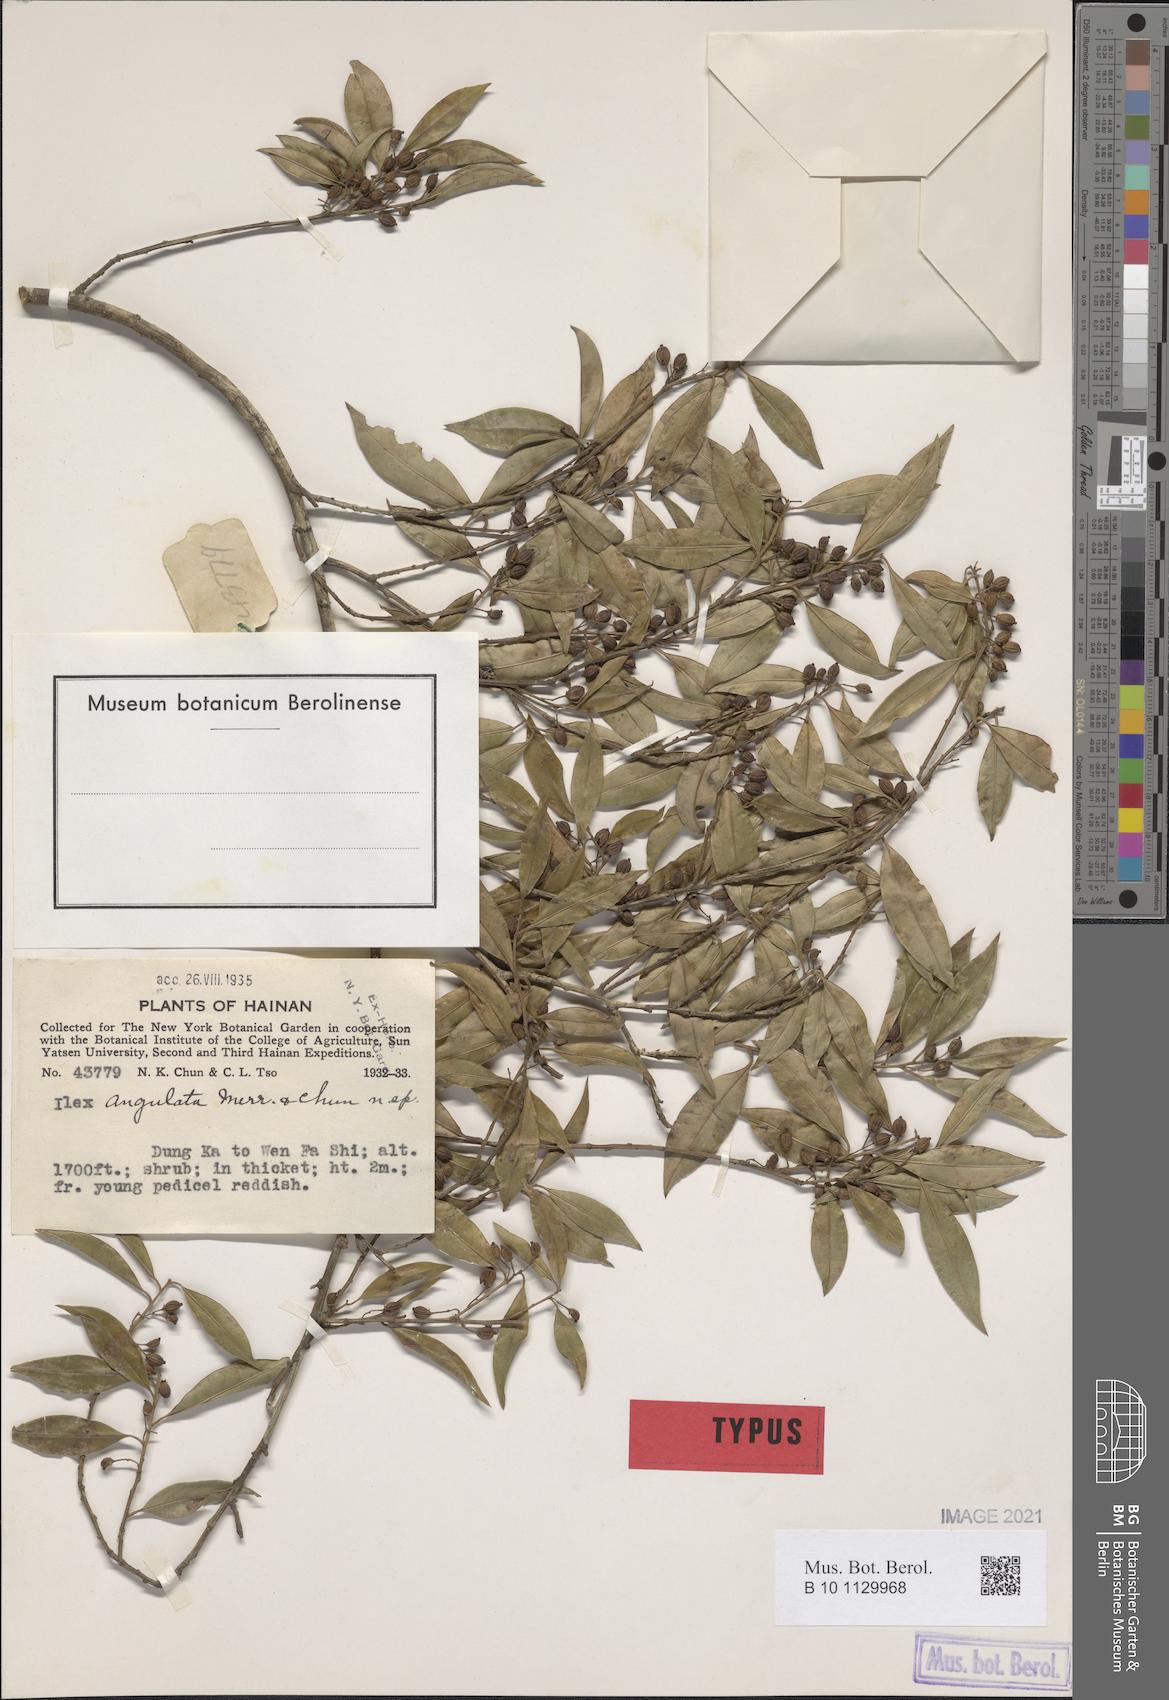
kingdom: Plantae
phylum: Tracheophyta
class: Magnoliopsida
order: Aquifoliales
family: Aquifoliaceae
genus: Ilex
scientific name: Ilex angulata
